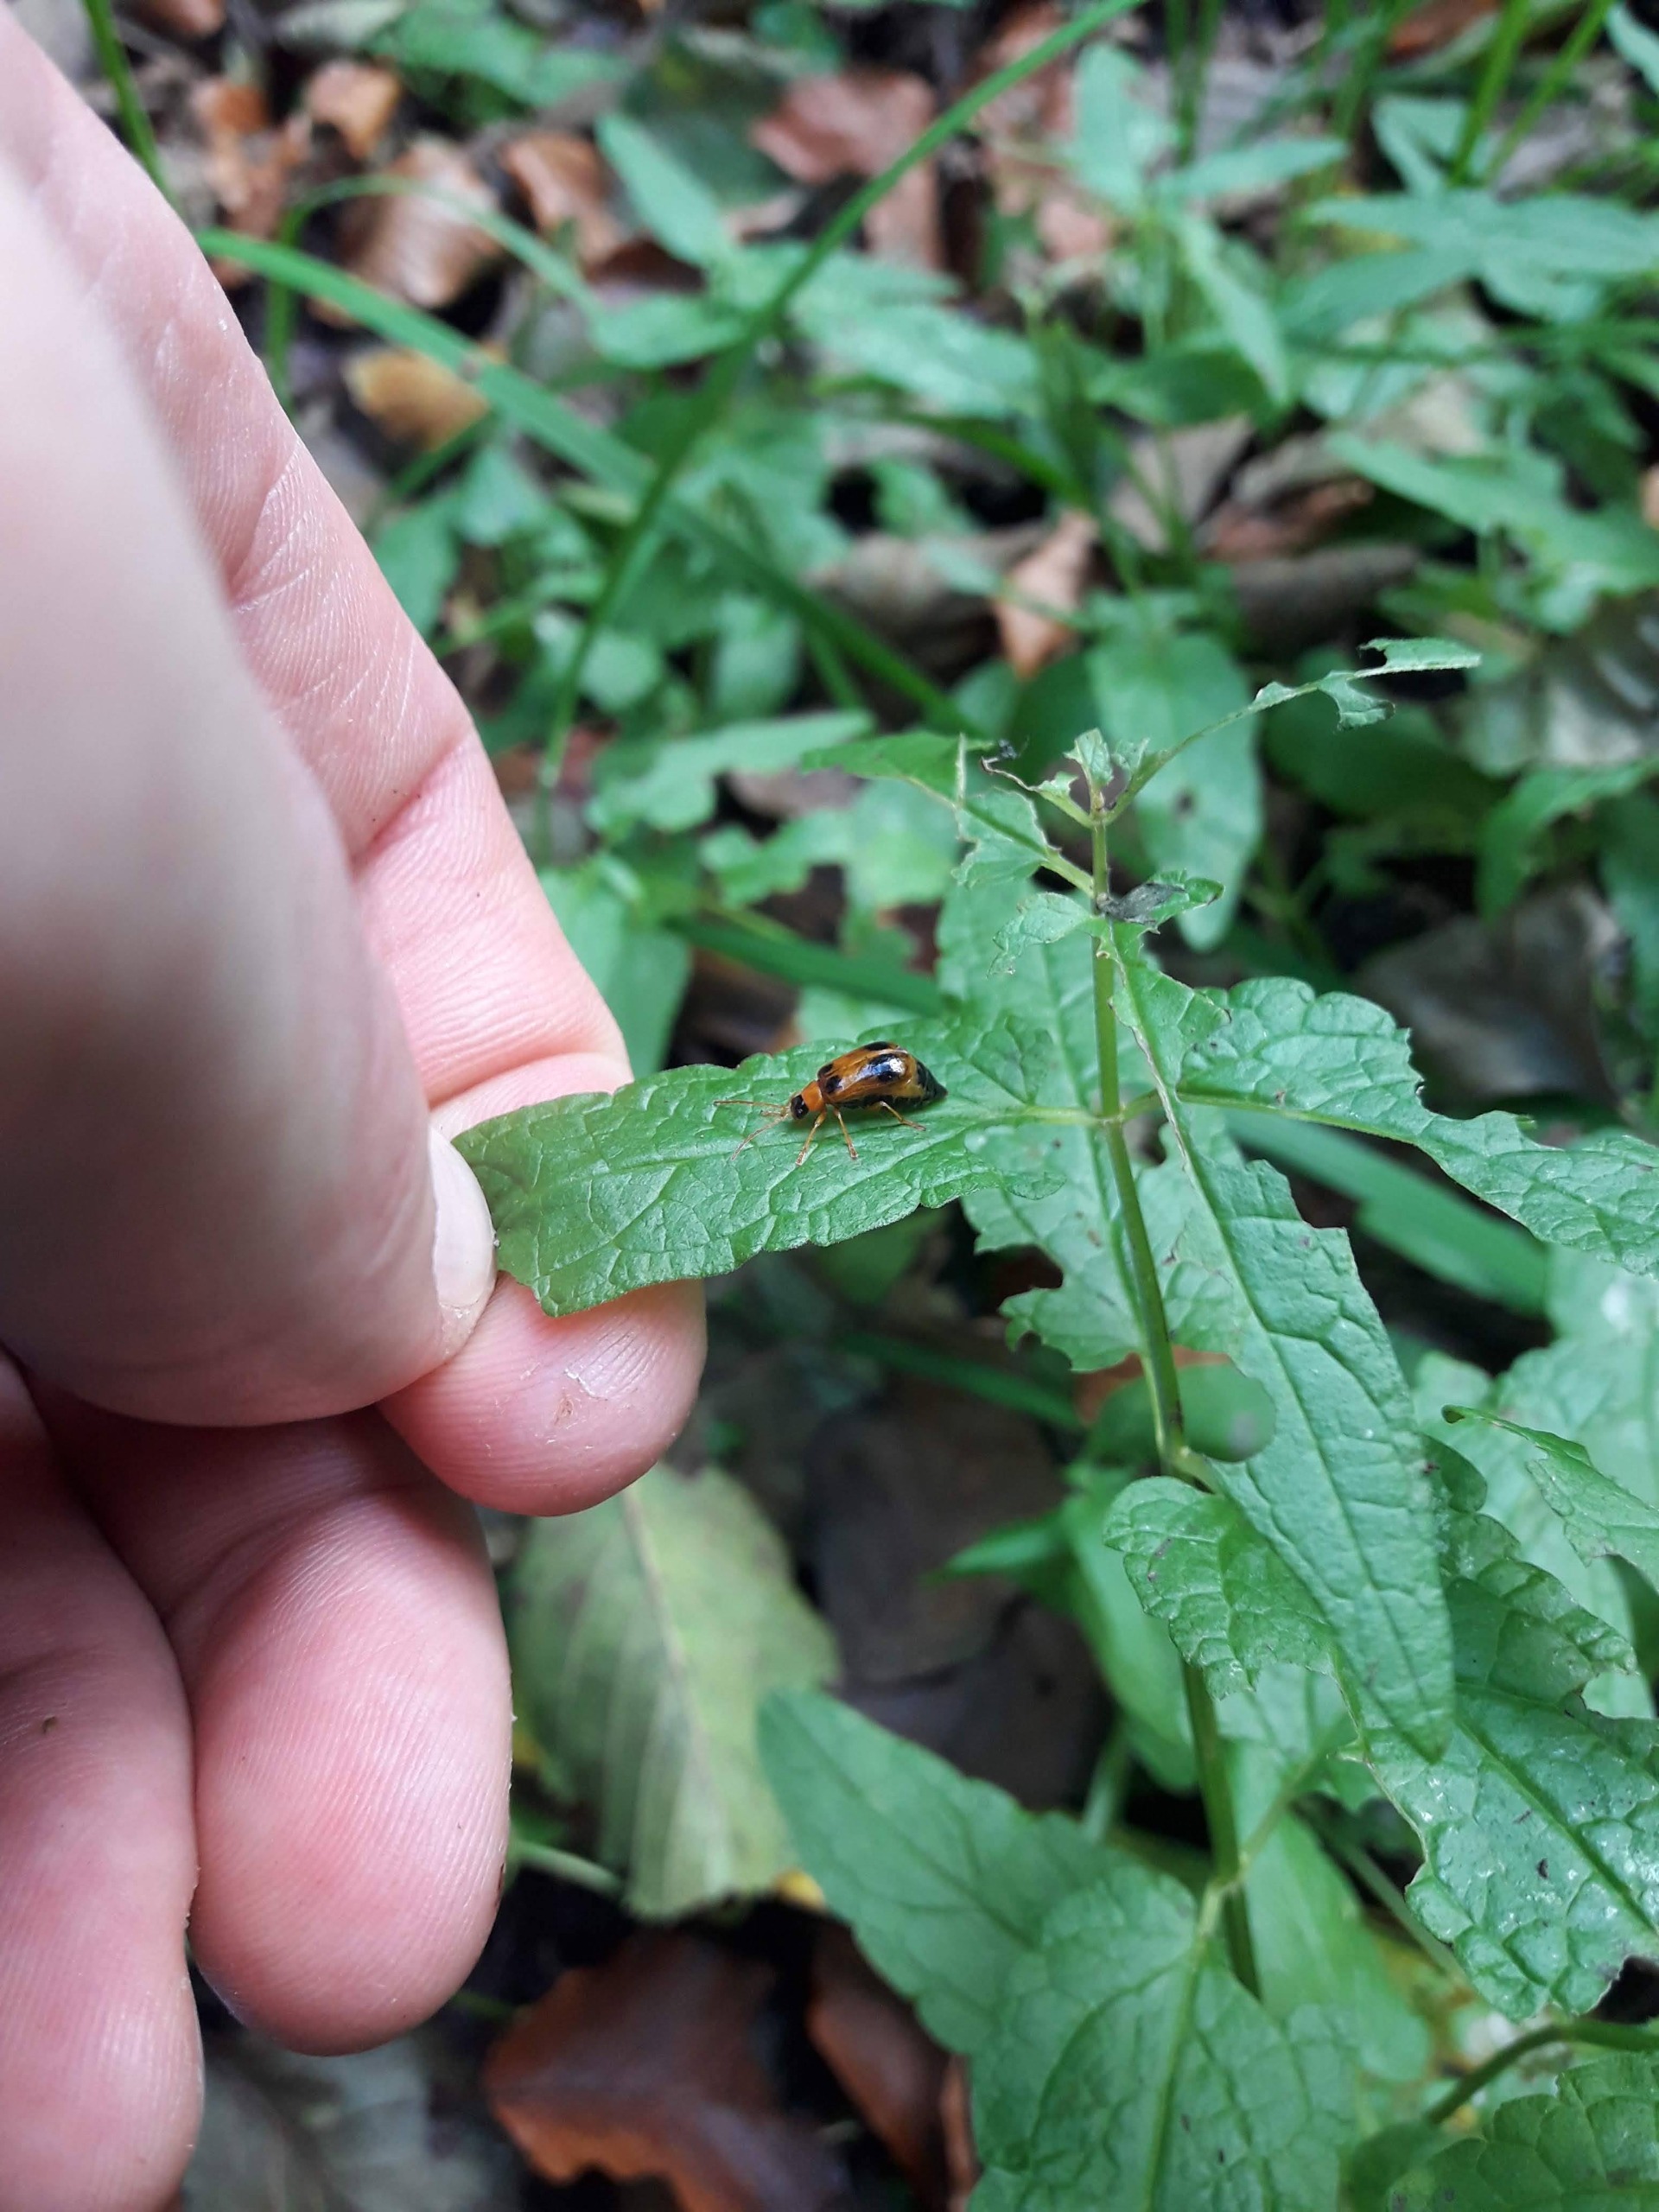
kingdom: Animalia
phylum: Arthropoda
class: Insecta
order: Coleoptera
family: Chrysomelidae
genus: Phyllobrotica
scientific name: Phyllobrotica quadrimaculata
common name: Sortplettet bladbille
